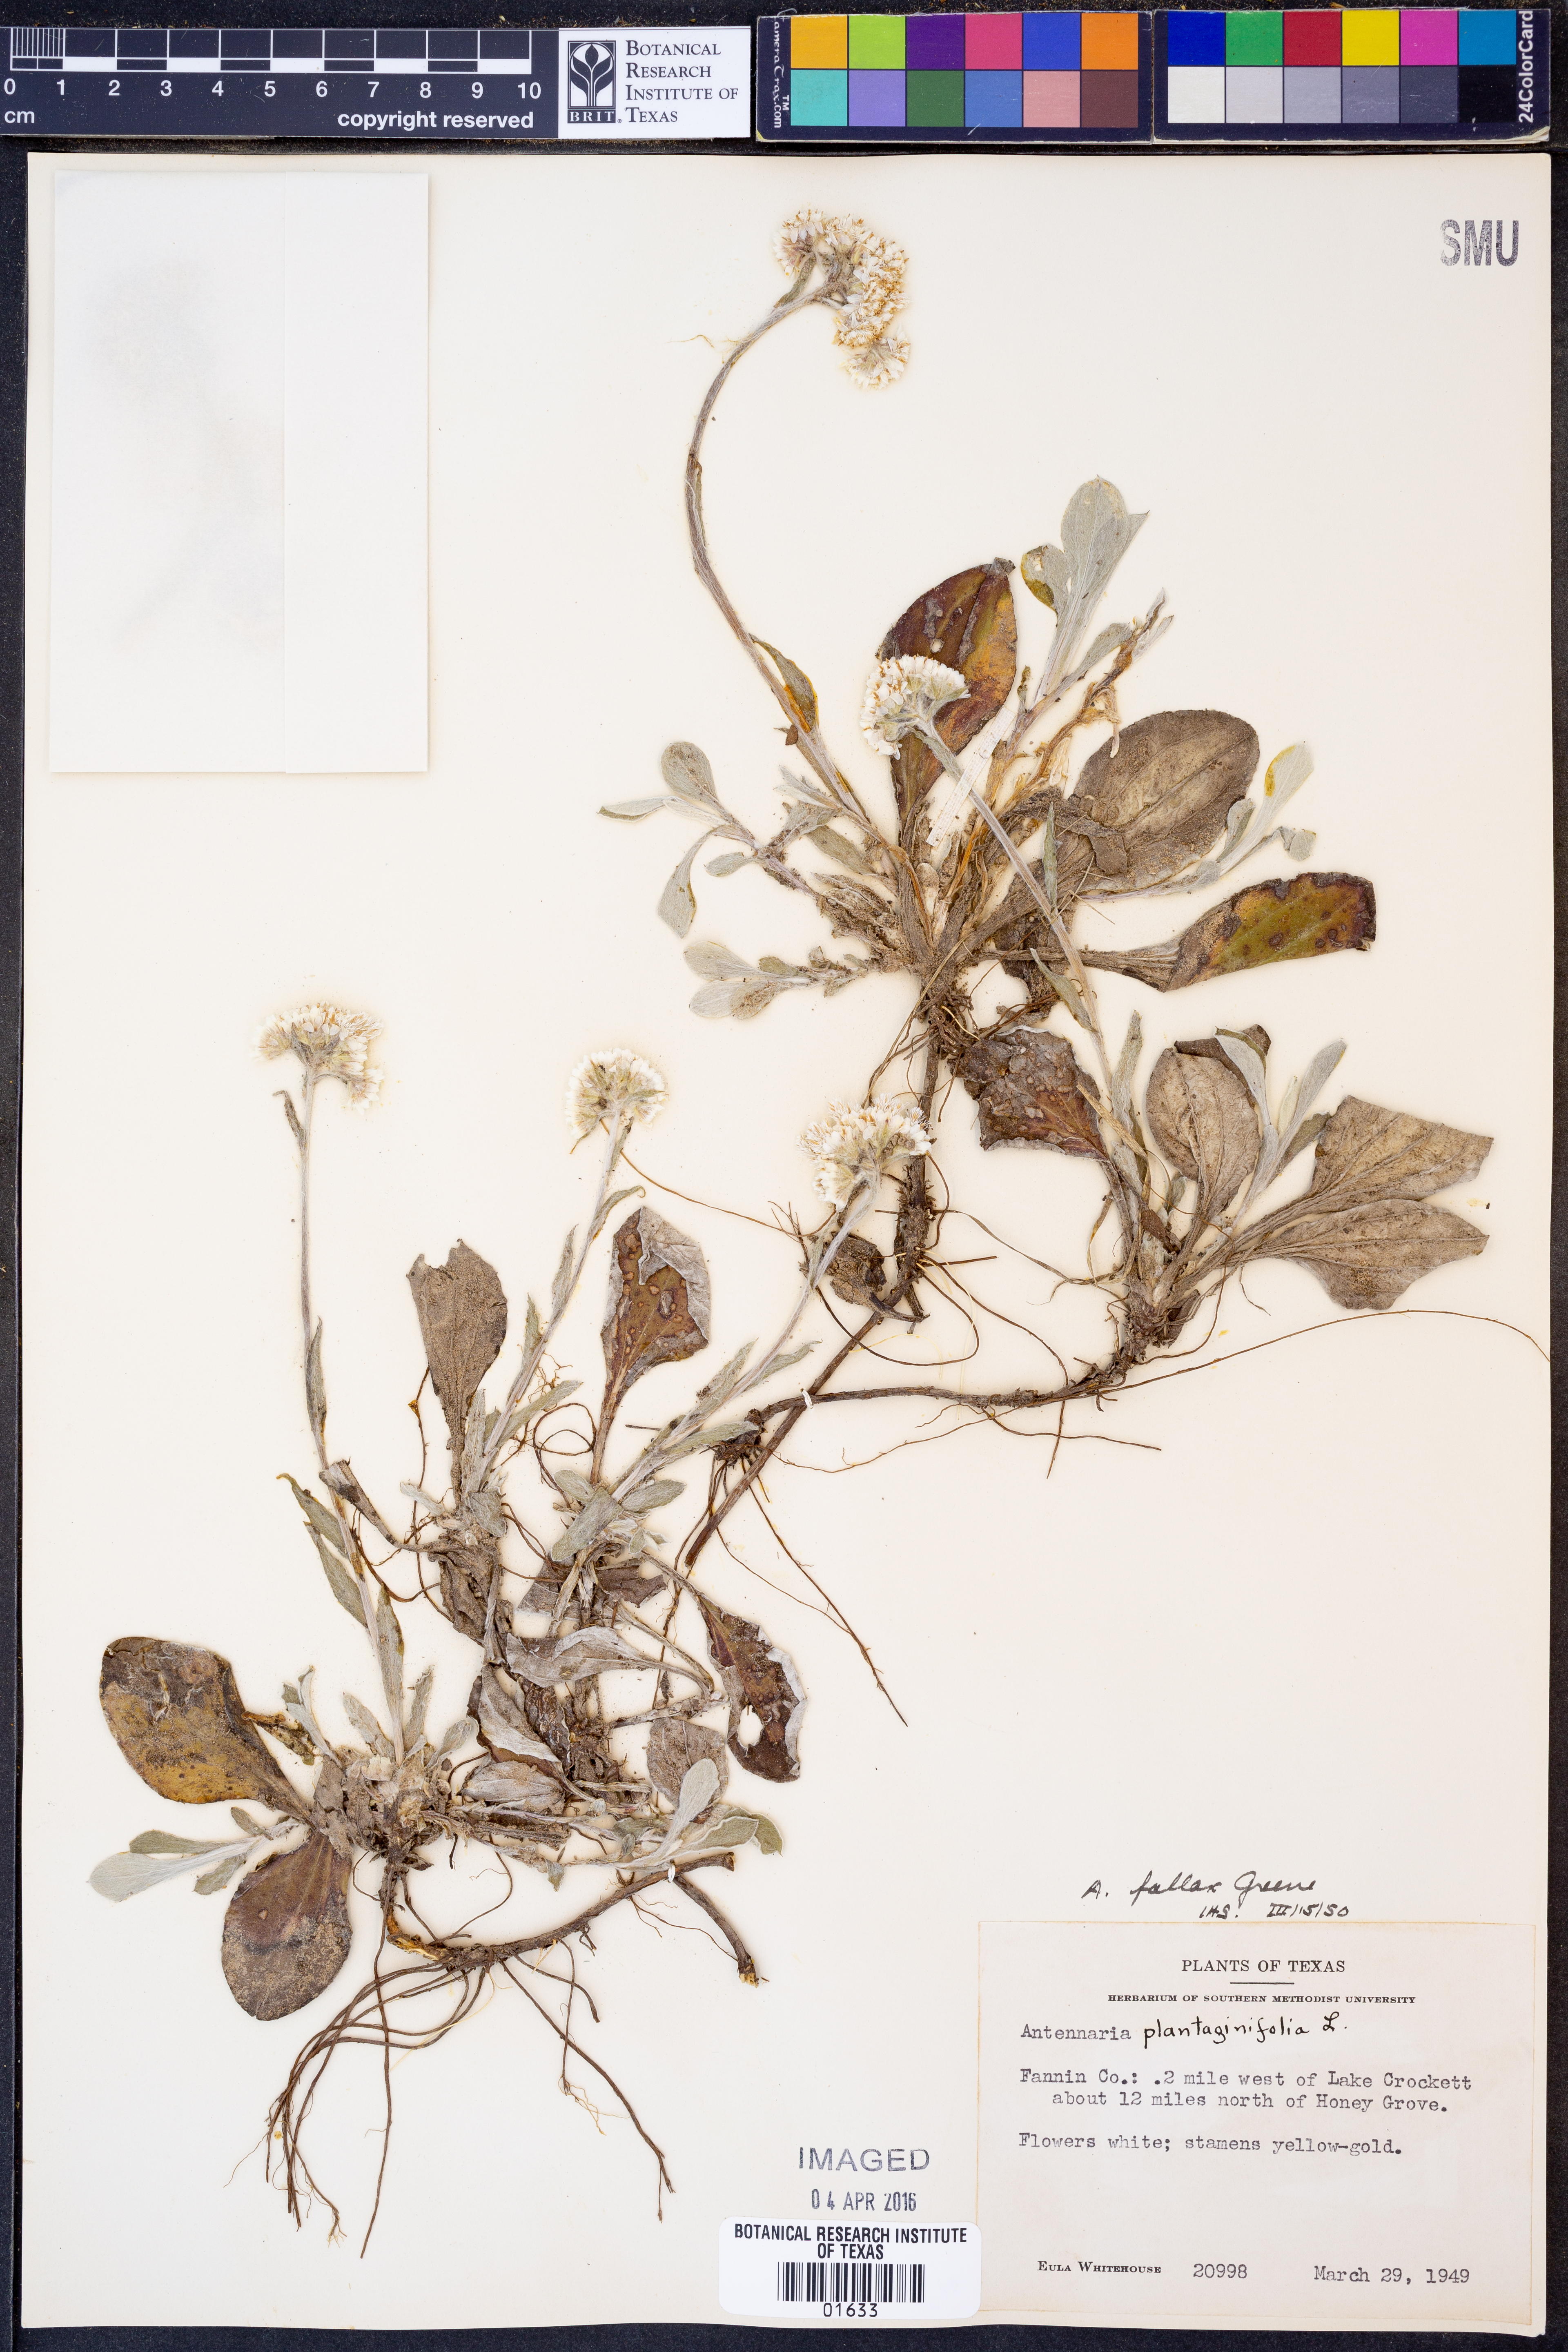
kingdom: Plantae
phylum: Tracheophyta
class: Magnoliopsida
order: Asterales
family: Asteraceae
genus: Antennaria
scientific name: Antennaria parlinii
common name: Parlin's pussytoes
